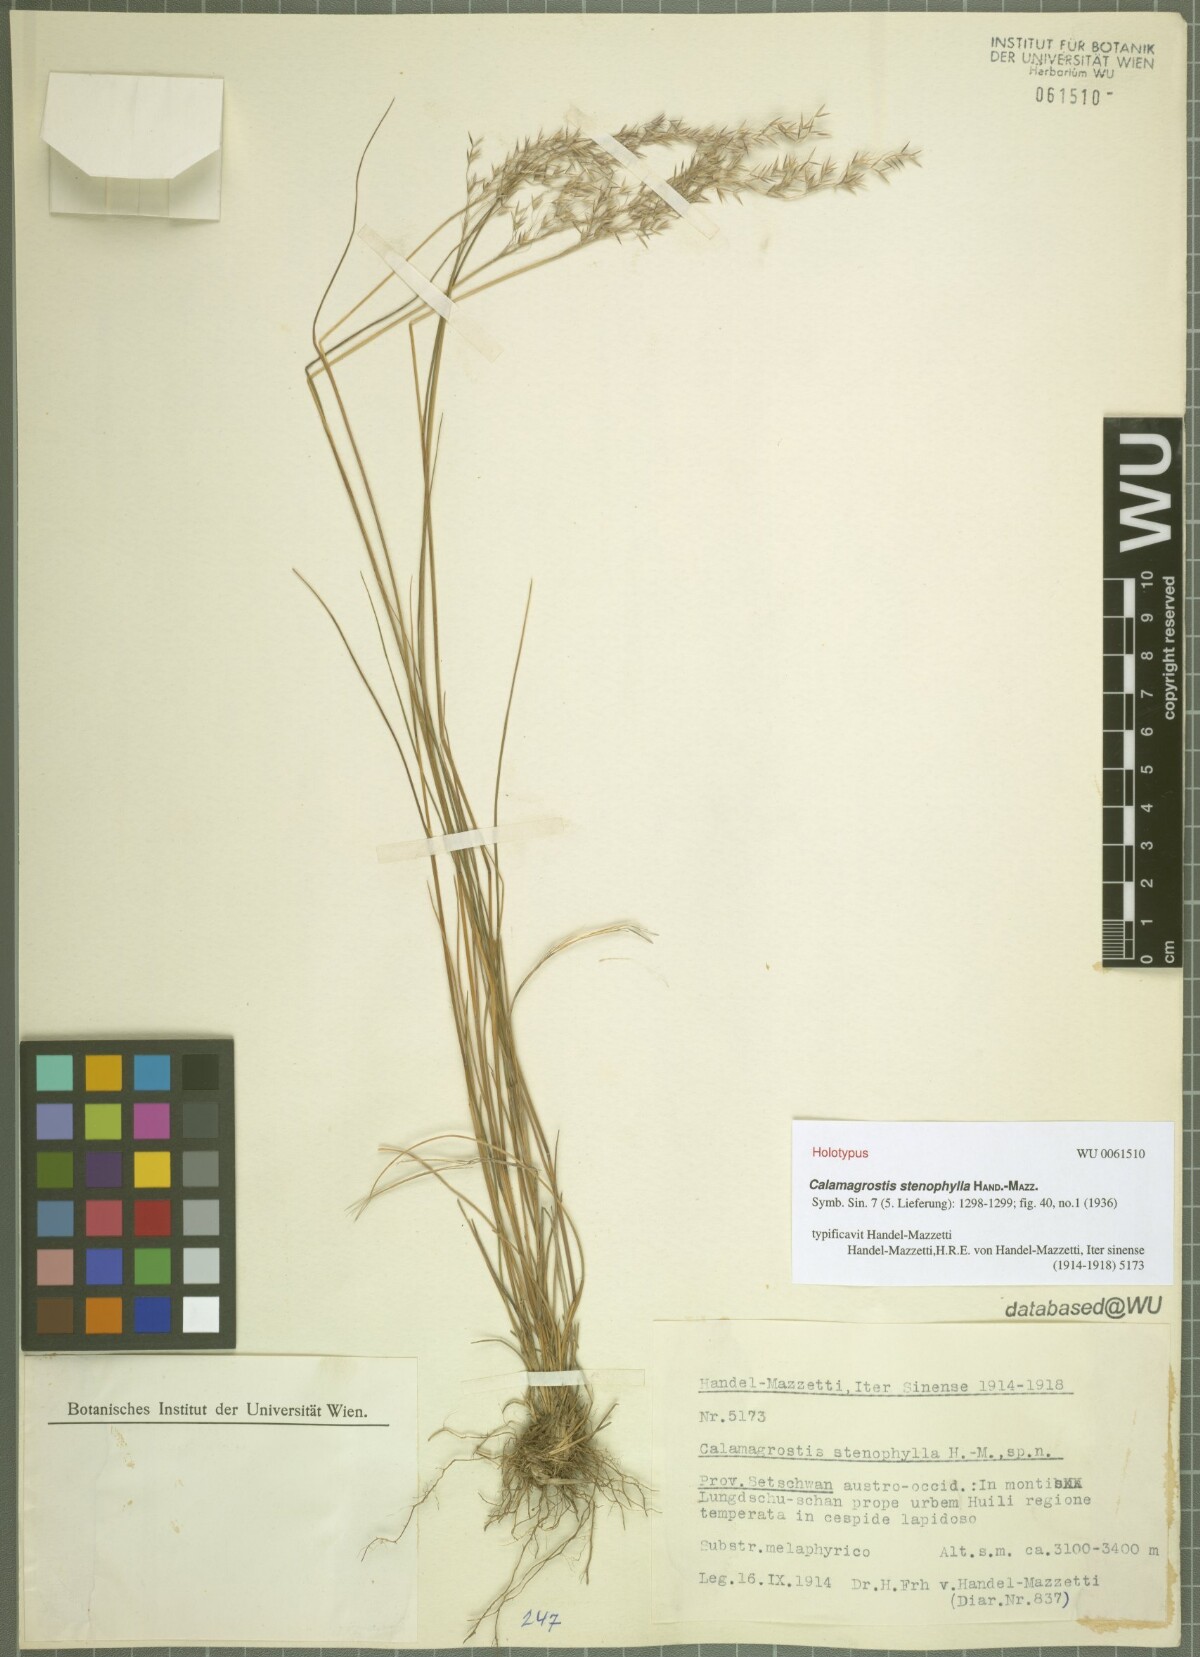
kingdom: Plantae
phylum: Tracheophyta
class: Liliopsida
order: Poales
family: Poaceae
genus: Calamagrostis
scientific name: Calamagrostis stenophylla
